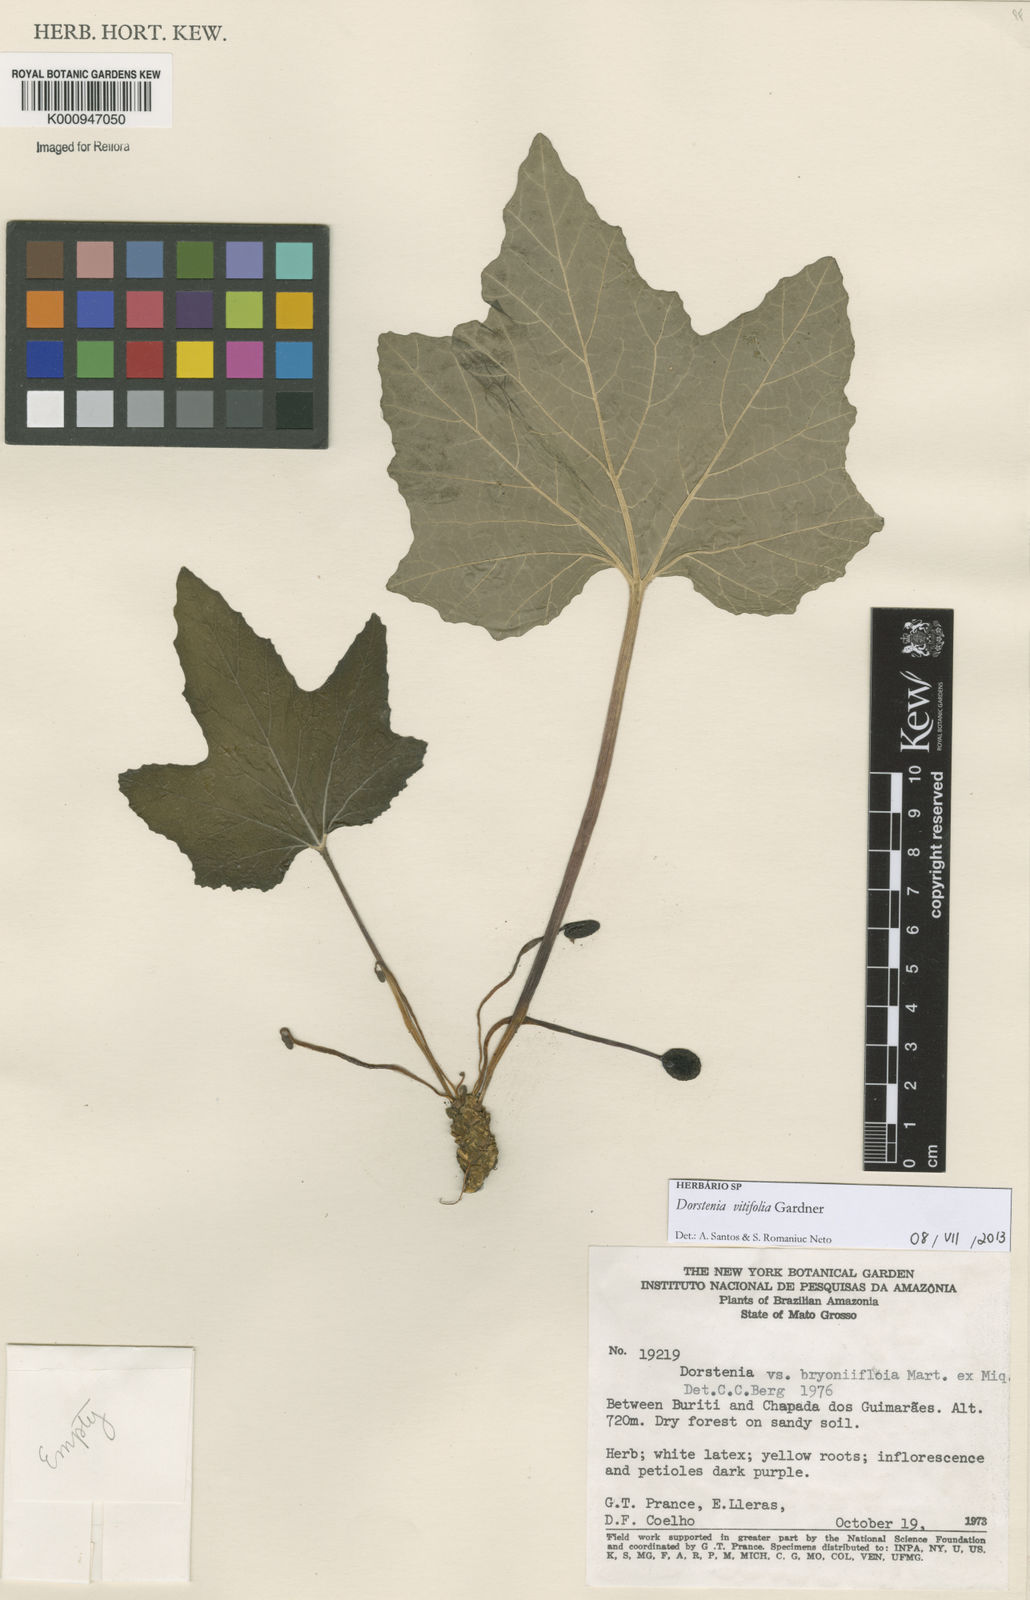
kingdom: Plantae
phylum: Tracheophyta
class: Magnoliopsida
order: Rosales
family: Moraceae
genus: Dorstenia
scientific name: Dorstenia cayapia
